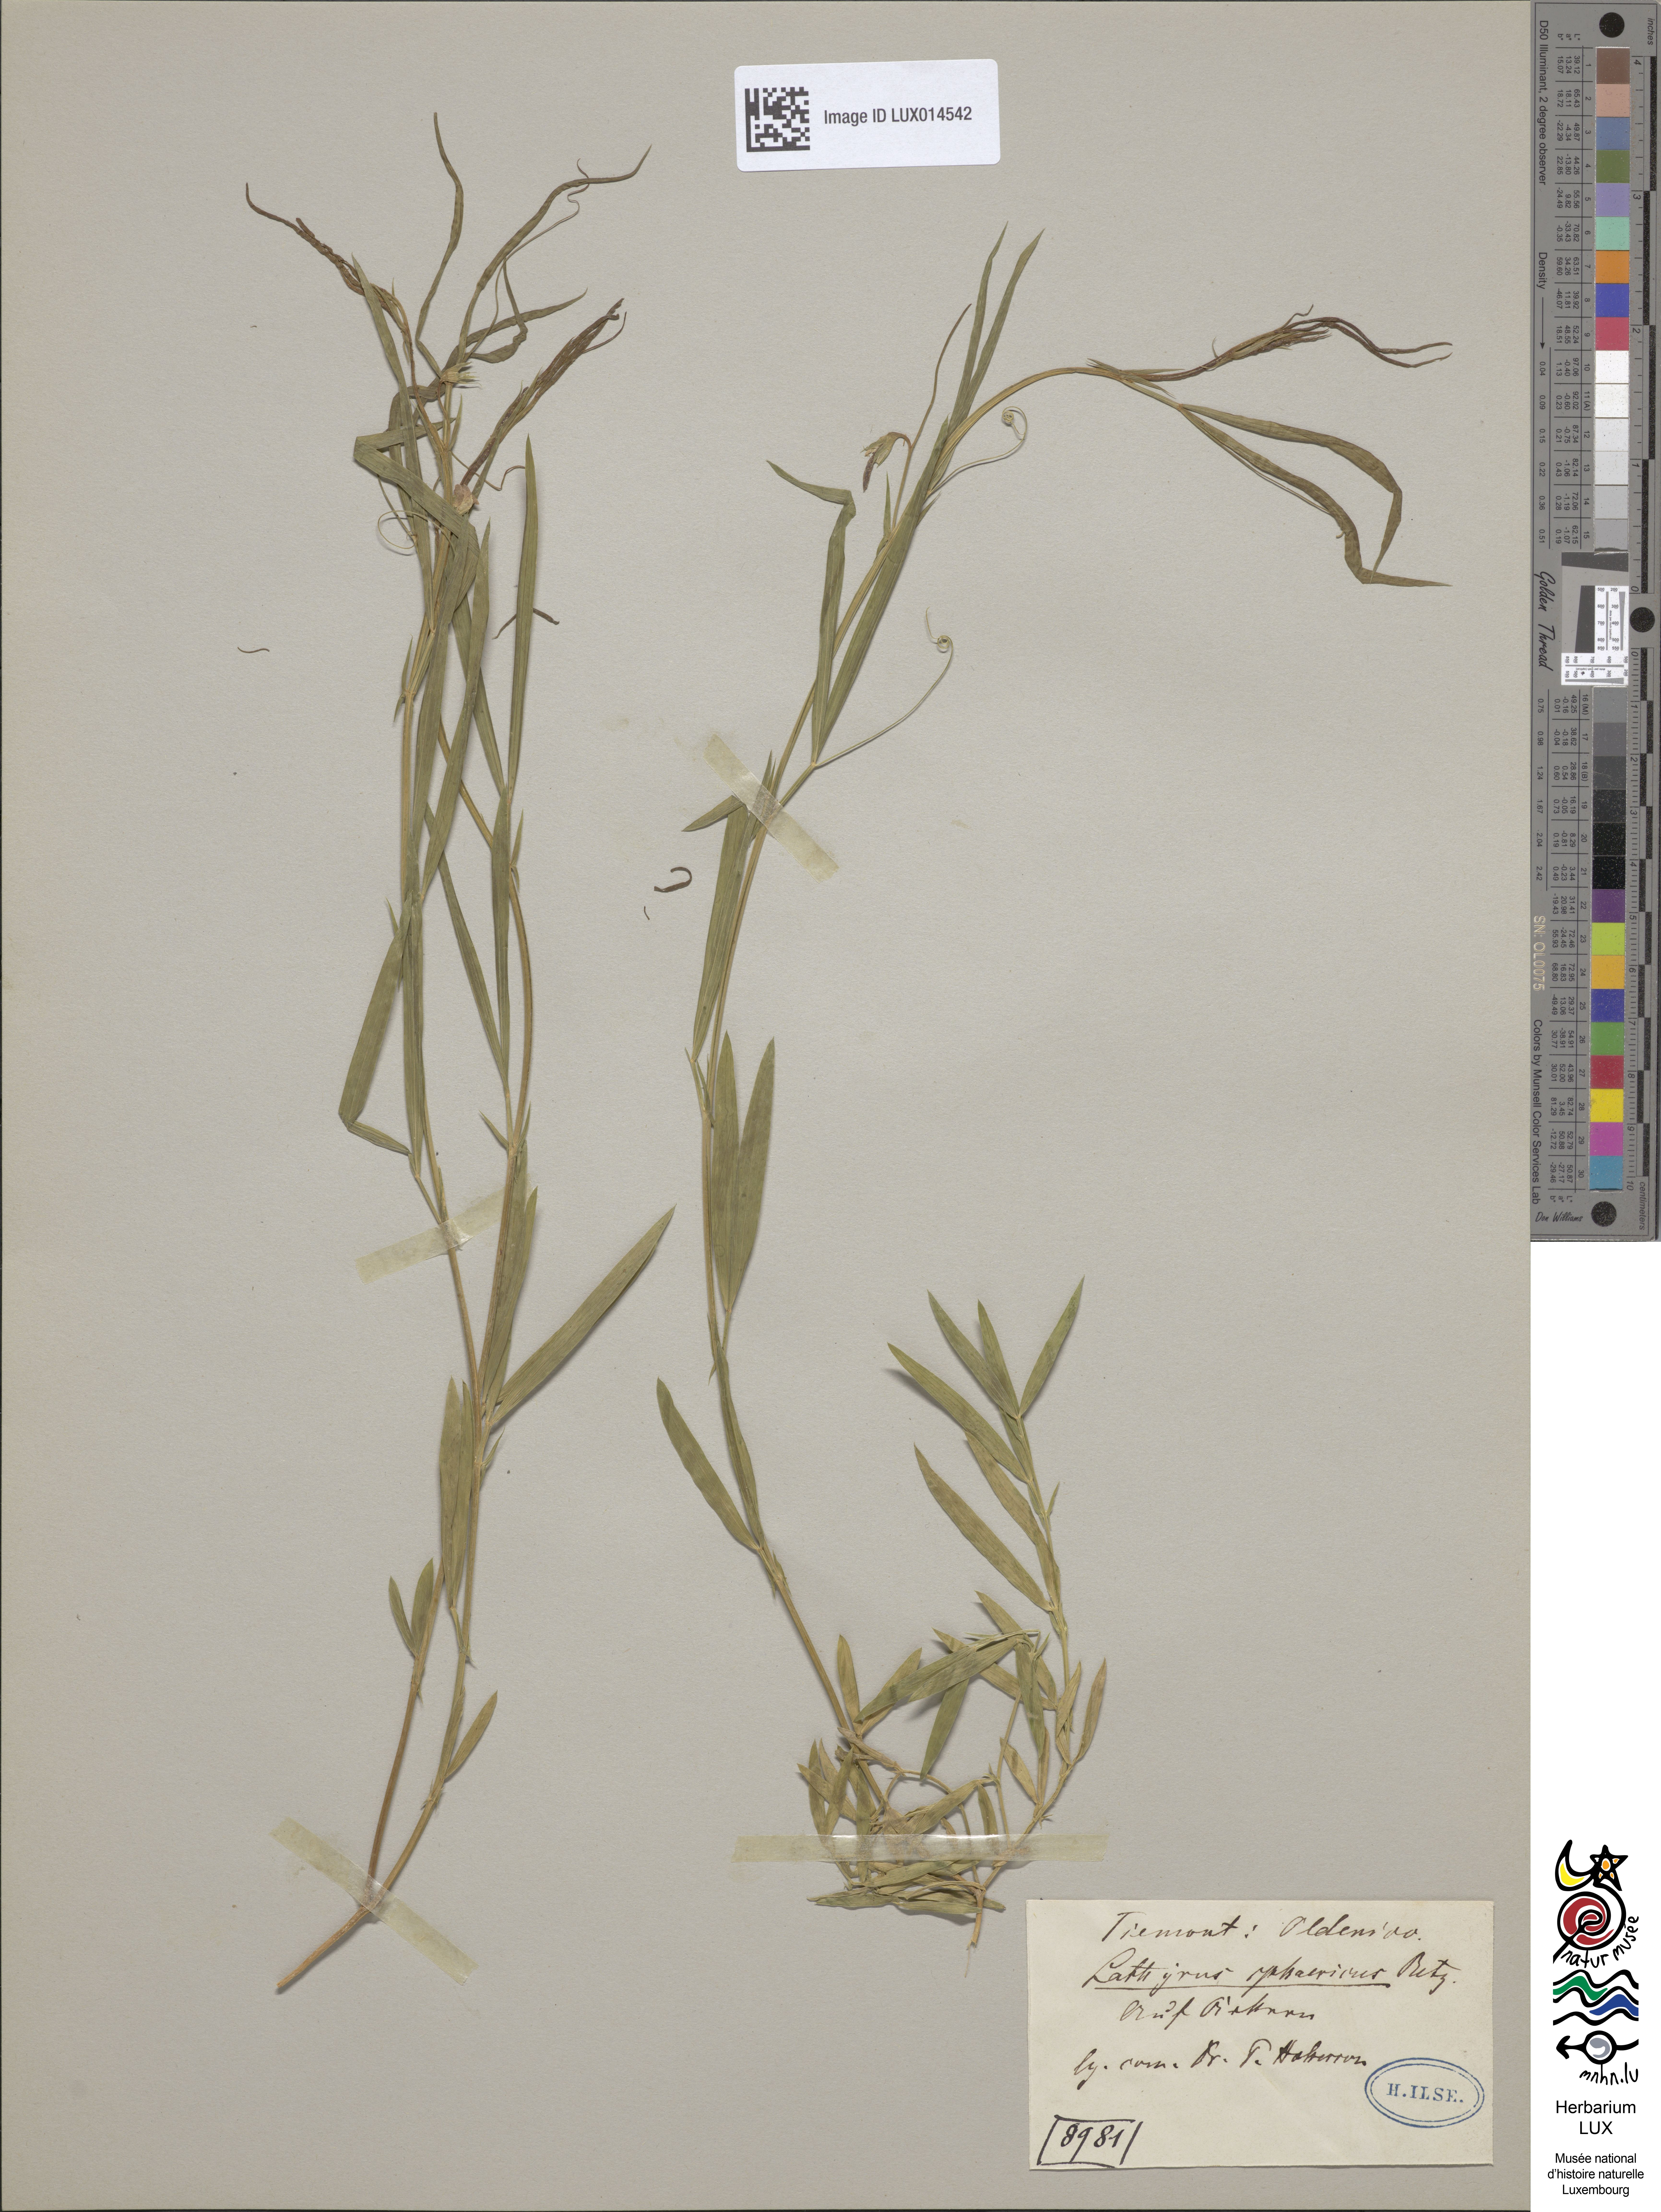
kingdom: Plantae
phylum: Tracheophyta
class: Magnoliopsida
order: Fabales
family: Fabaceae
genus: Lathyrus
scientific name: Lathyrus sphaericus
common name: Grass pea
